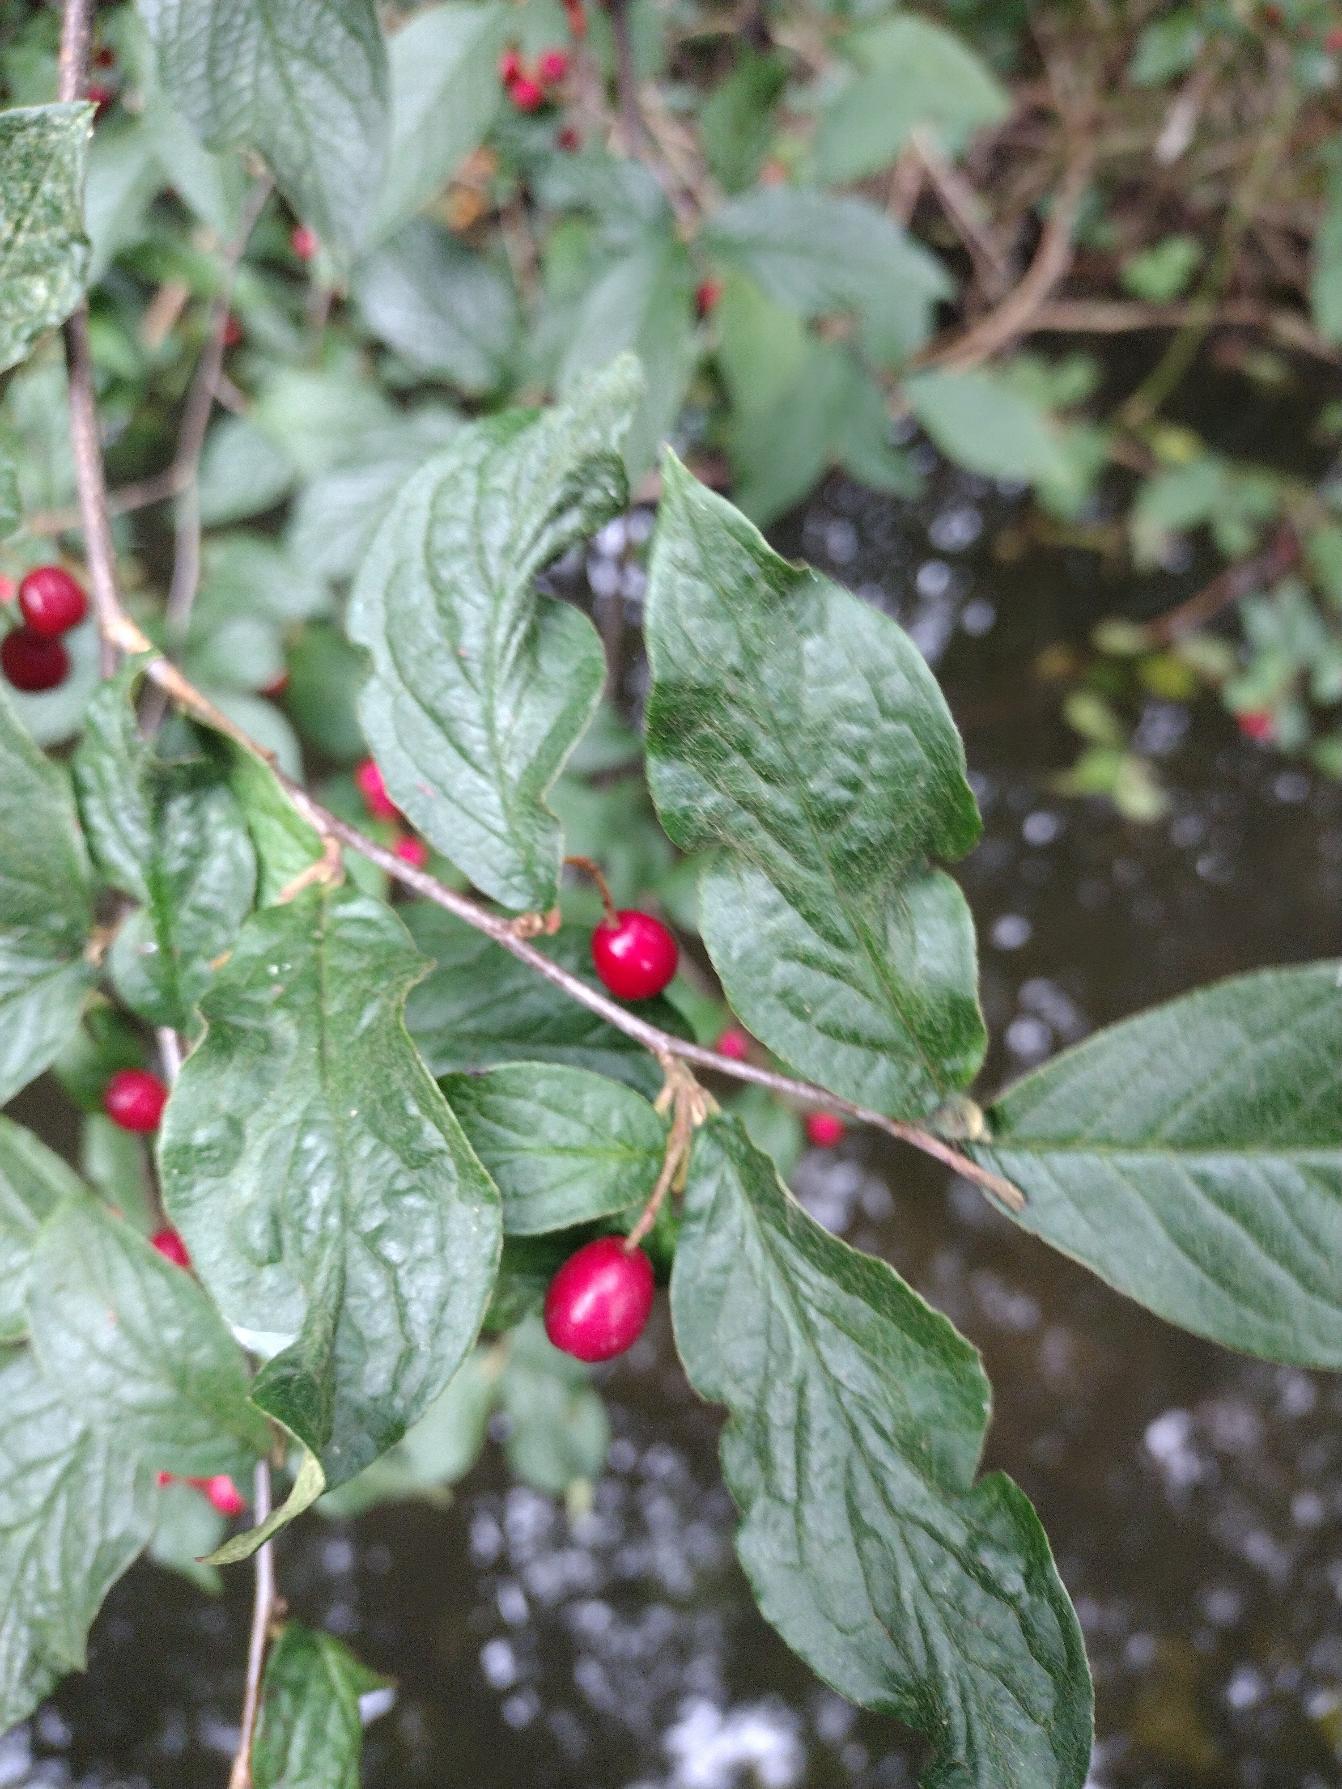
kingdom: Plantae
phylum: Tracheophyta
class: Magnoliopsida
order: Rosales
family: Rosaceae
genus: Cotoneaster
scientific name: Cotoneaster bullatus
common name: Buklet dværgmispel
